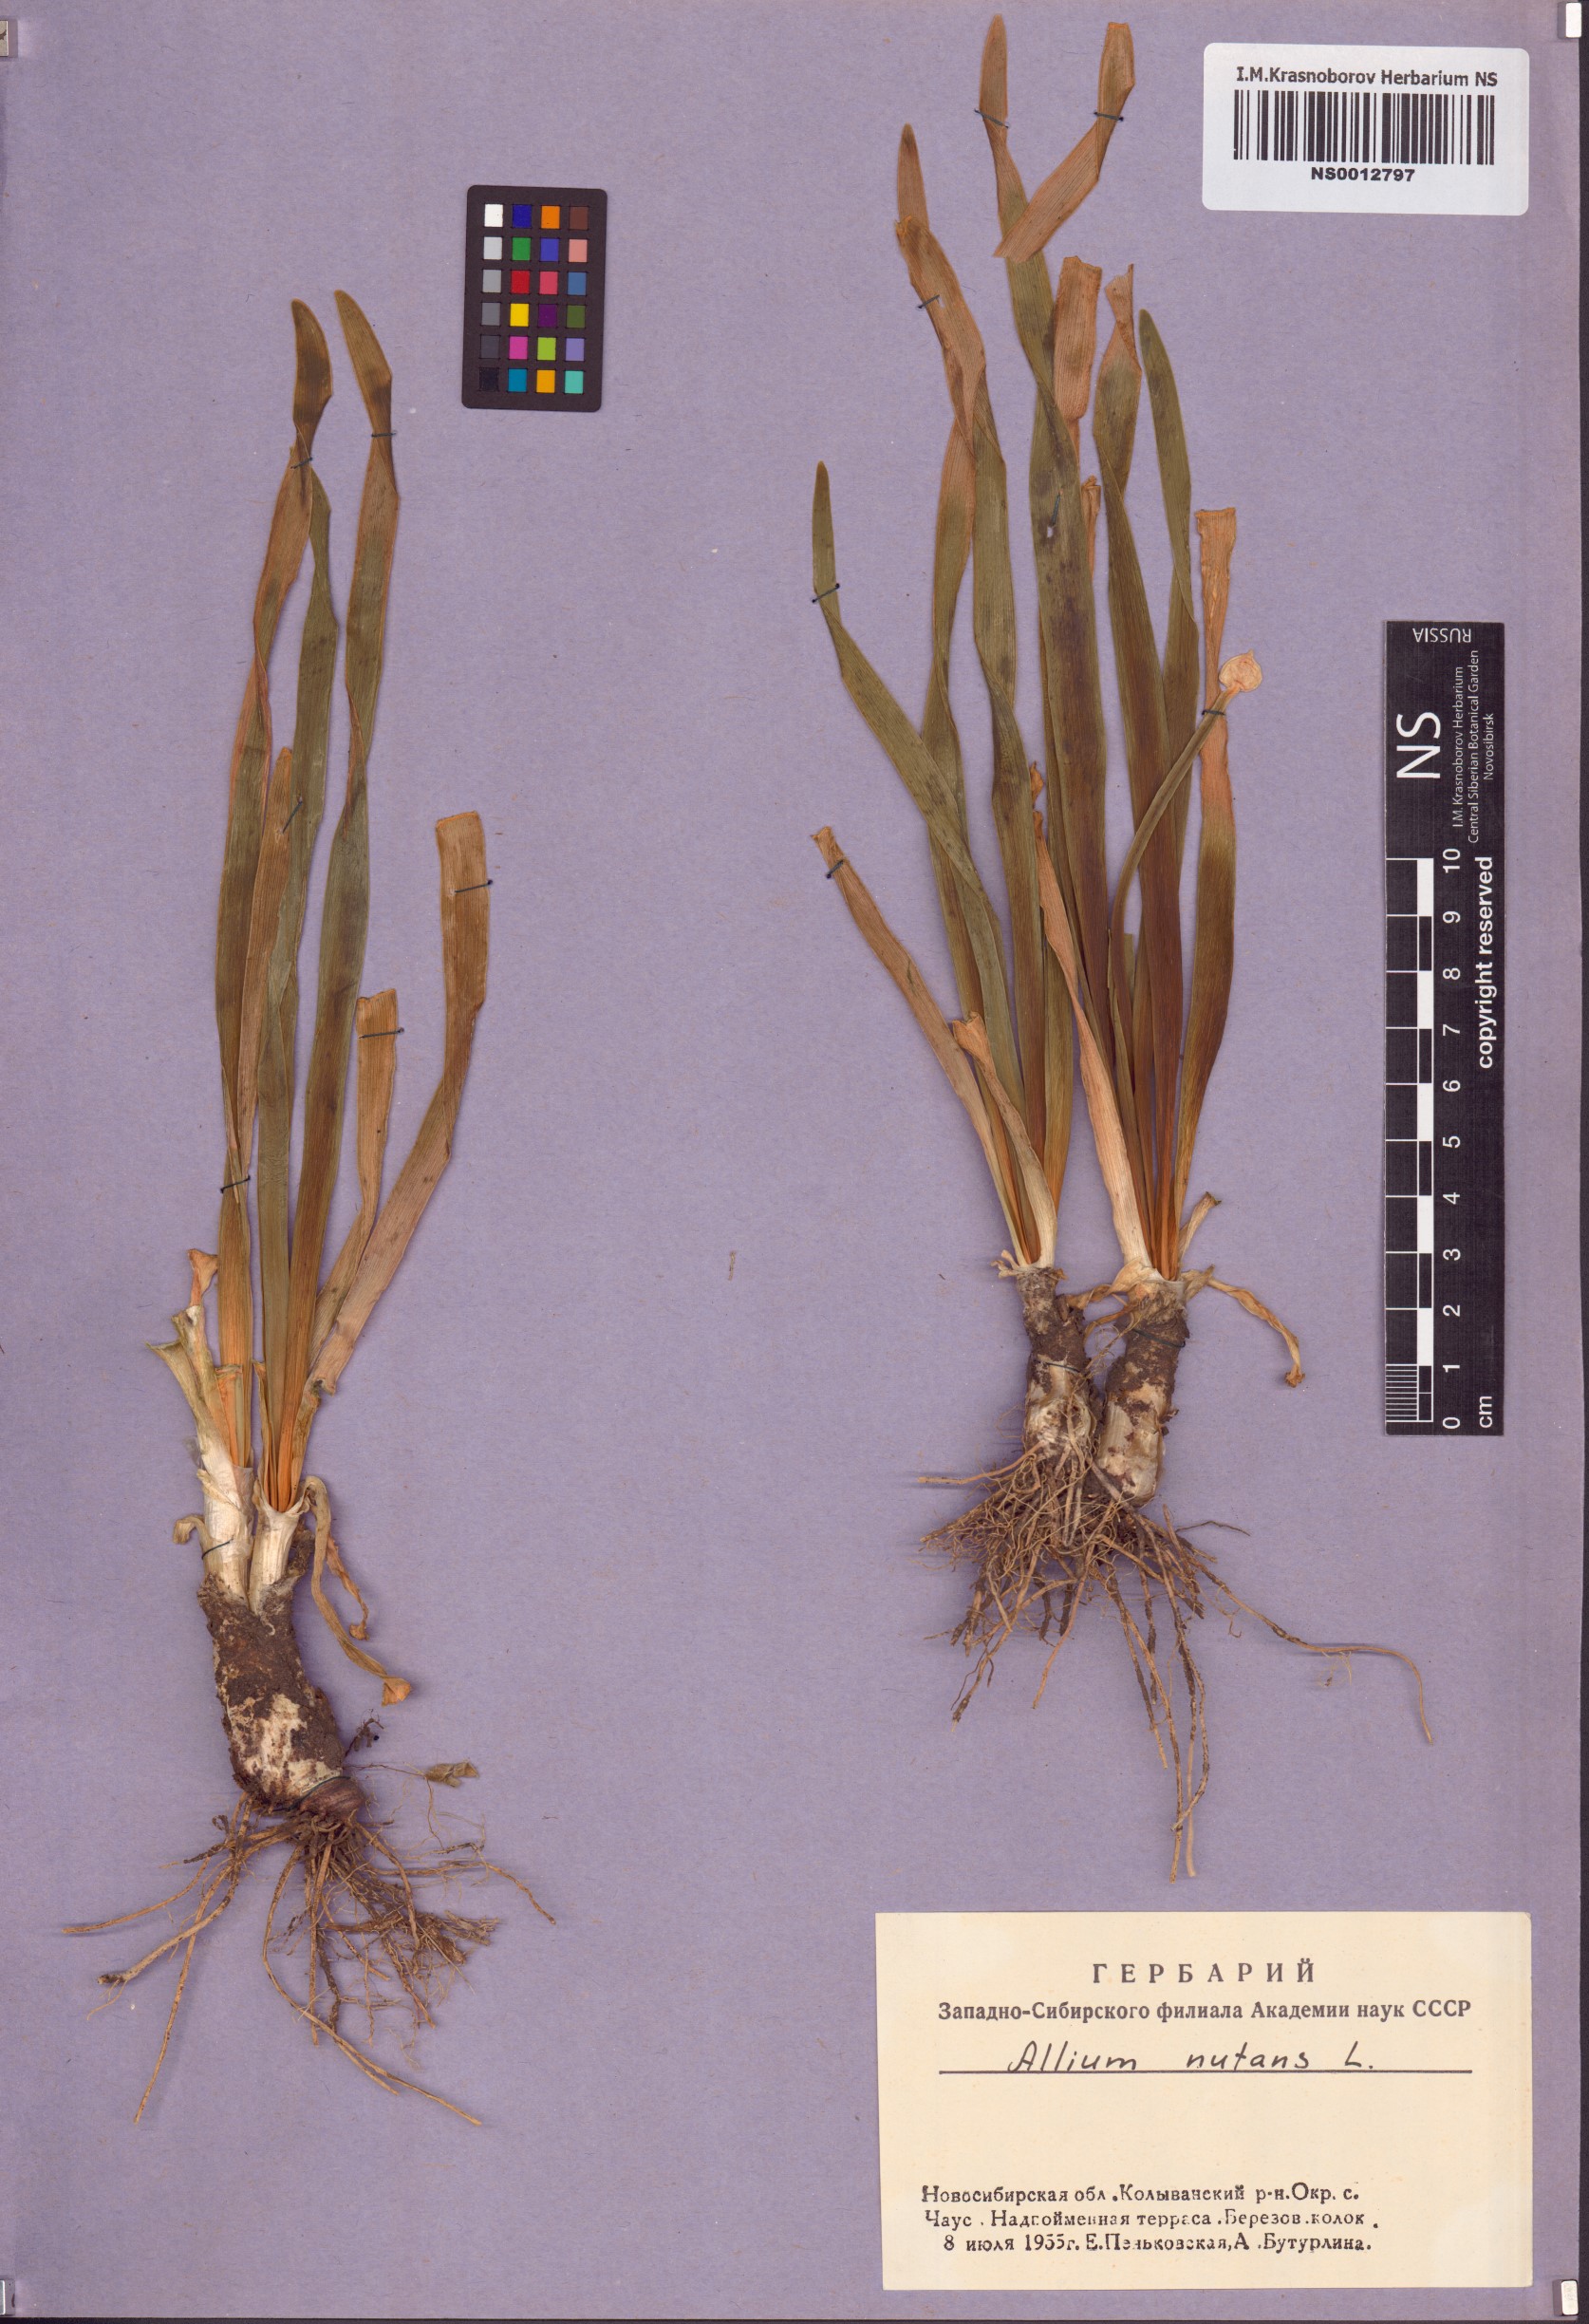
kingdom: Plantae
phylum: Tracheophyta
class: Liliopsida
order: Asparagales
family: Amaryllidaceae
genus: Allium
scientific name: Allium nutans
